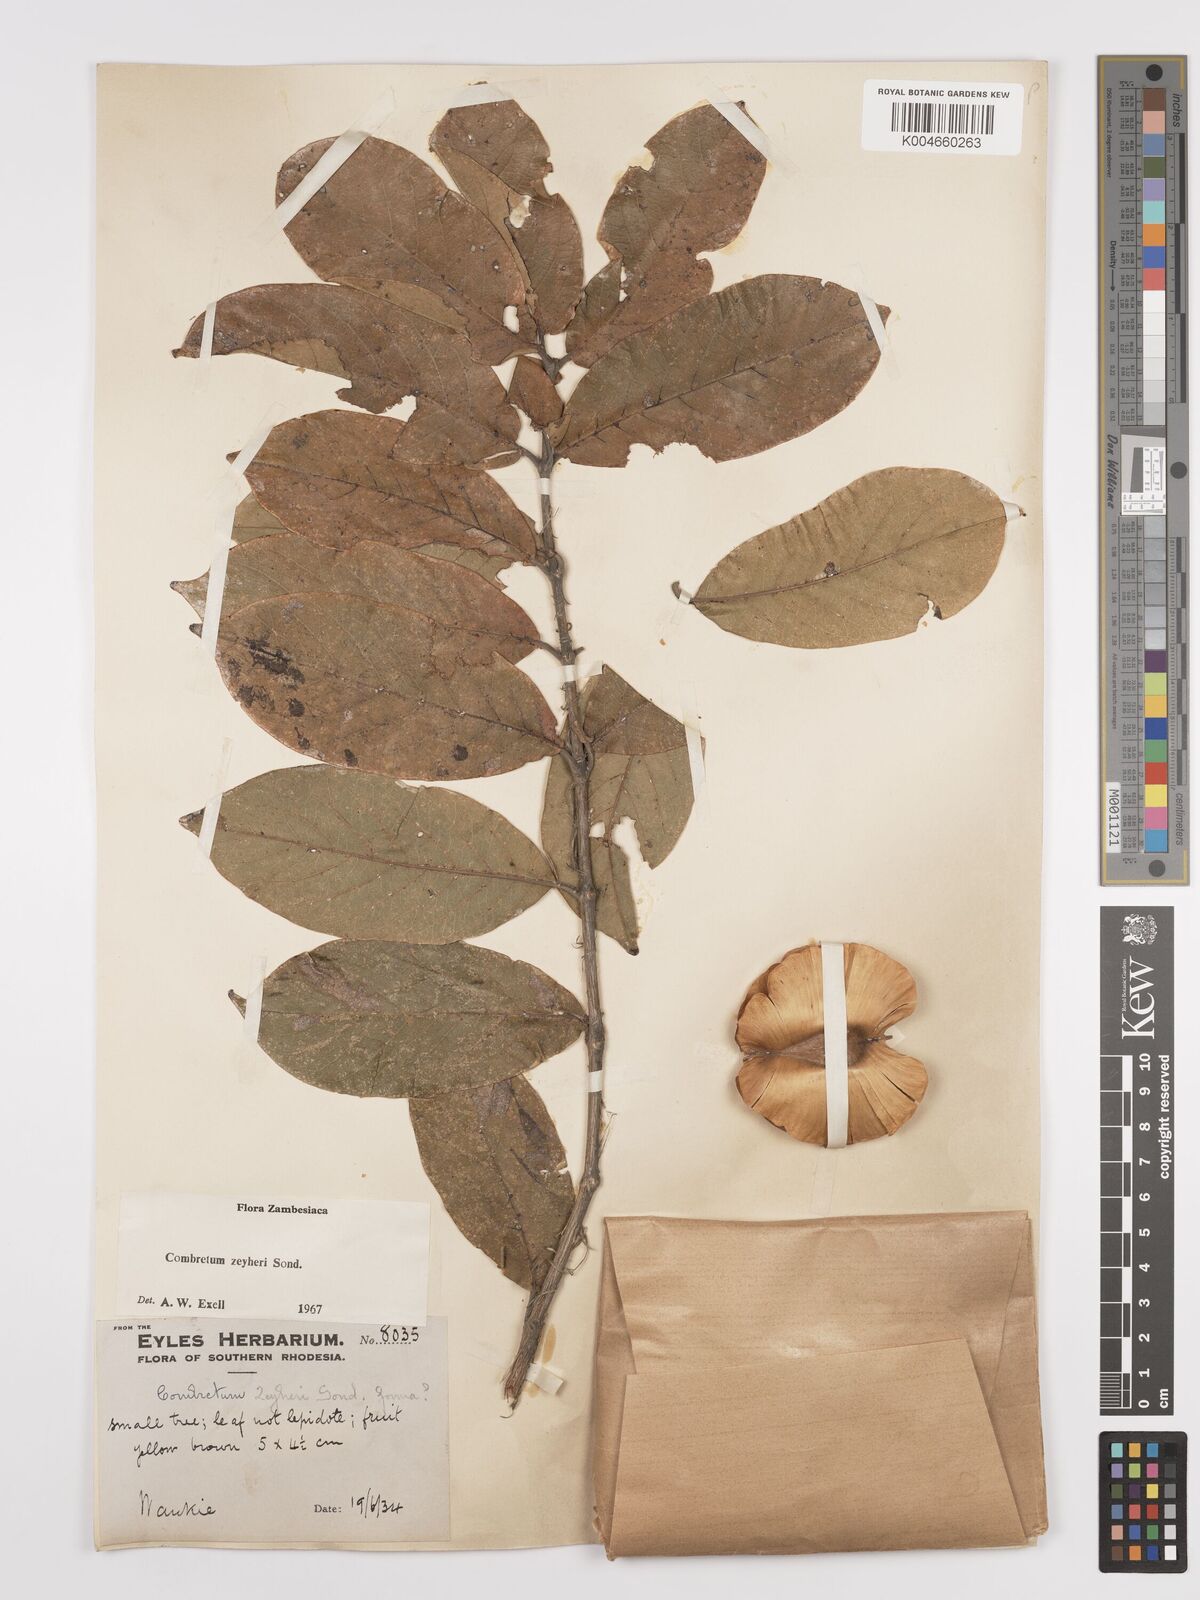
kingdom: Plantae
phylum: Tracheophyta
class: Magnoliopsida
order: Myrtales
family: Combretaceae
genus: Combretum
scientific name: Combretum zeyheri
